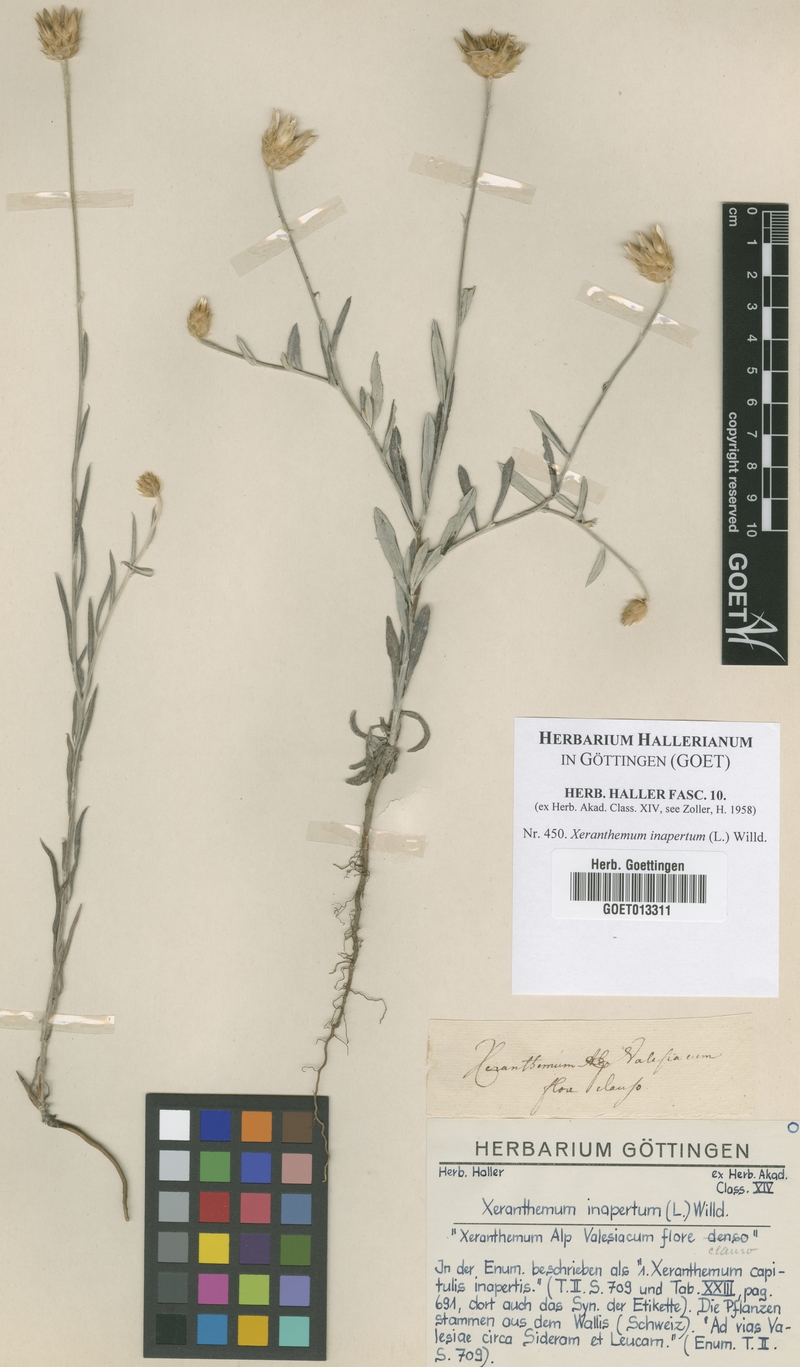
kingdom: Plantae
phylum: Tracheophyta
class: Magnoliopsida
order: Asterales
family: Asteraceae
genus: Xeranthemum
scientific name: Xeranthemum inapterum
